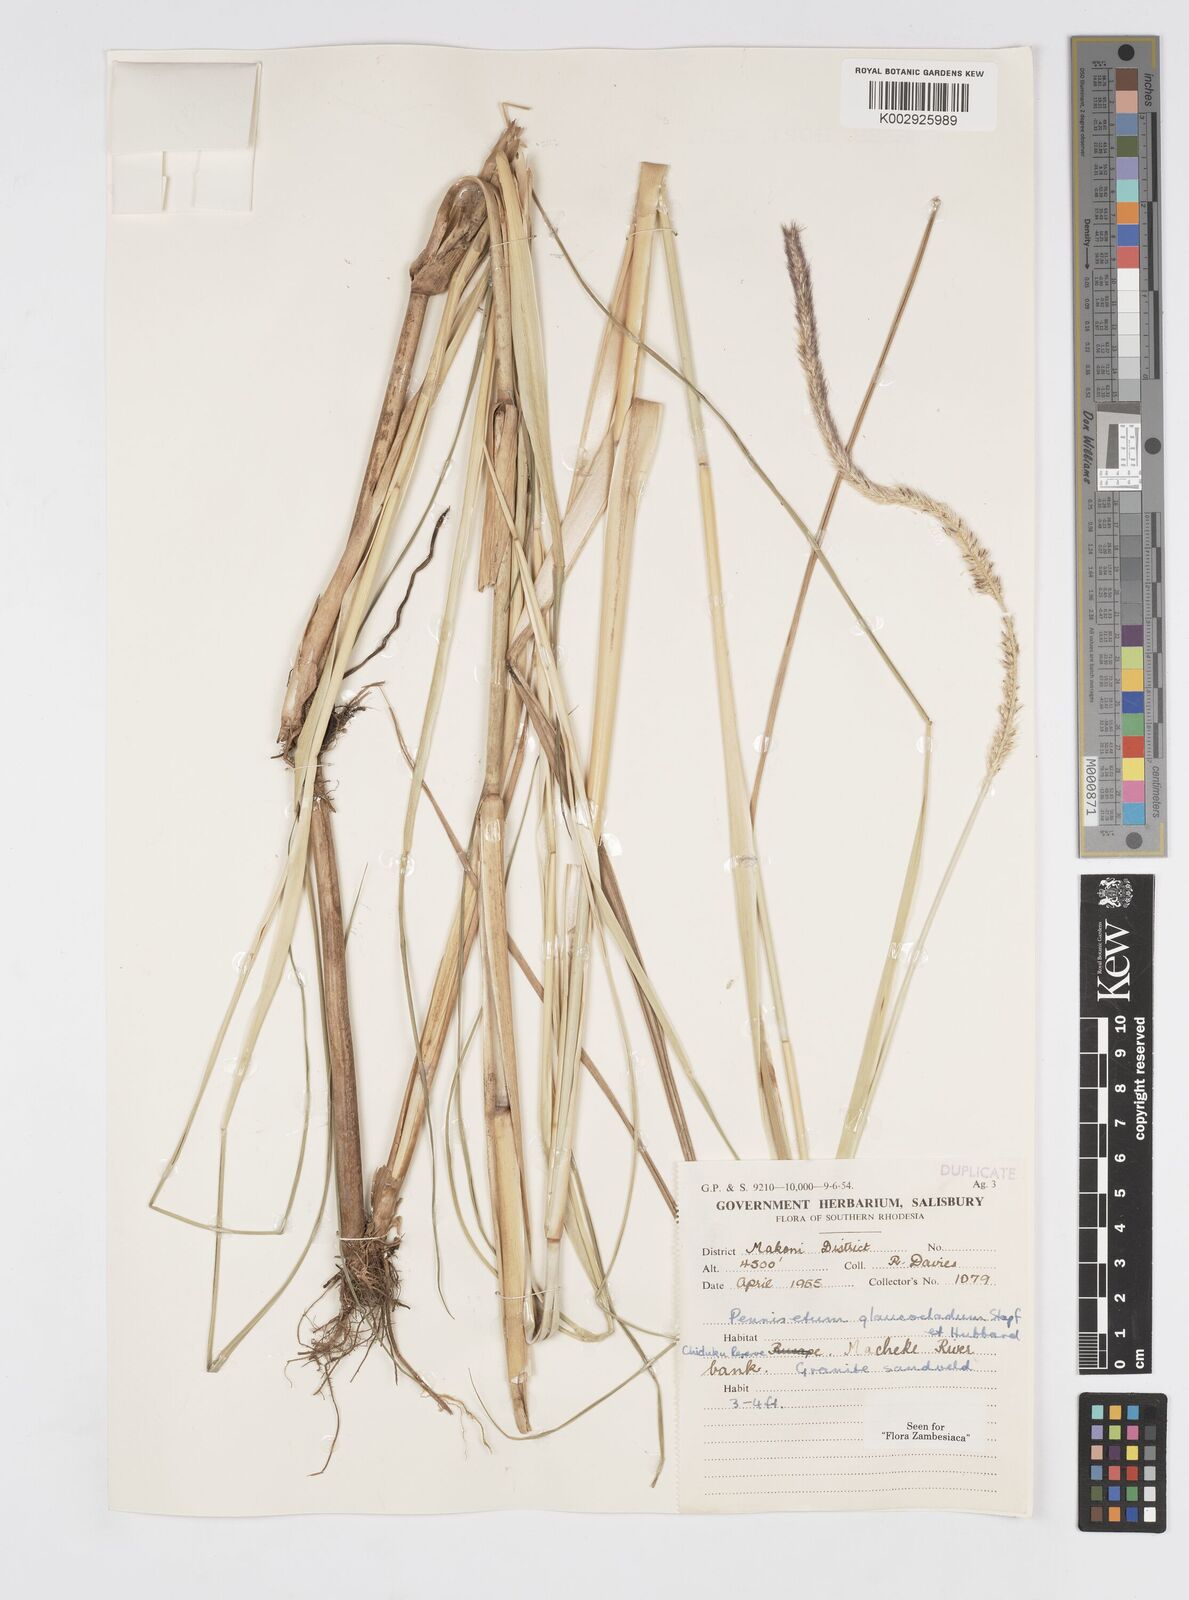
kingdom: Plantae
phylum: Tracheophyta
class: Liliopsida
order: Poales
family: Poaceae
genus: Cenchrus
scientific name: Cenchrus caudatus
